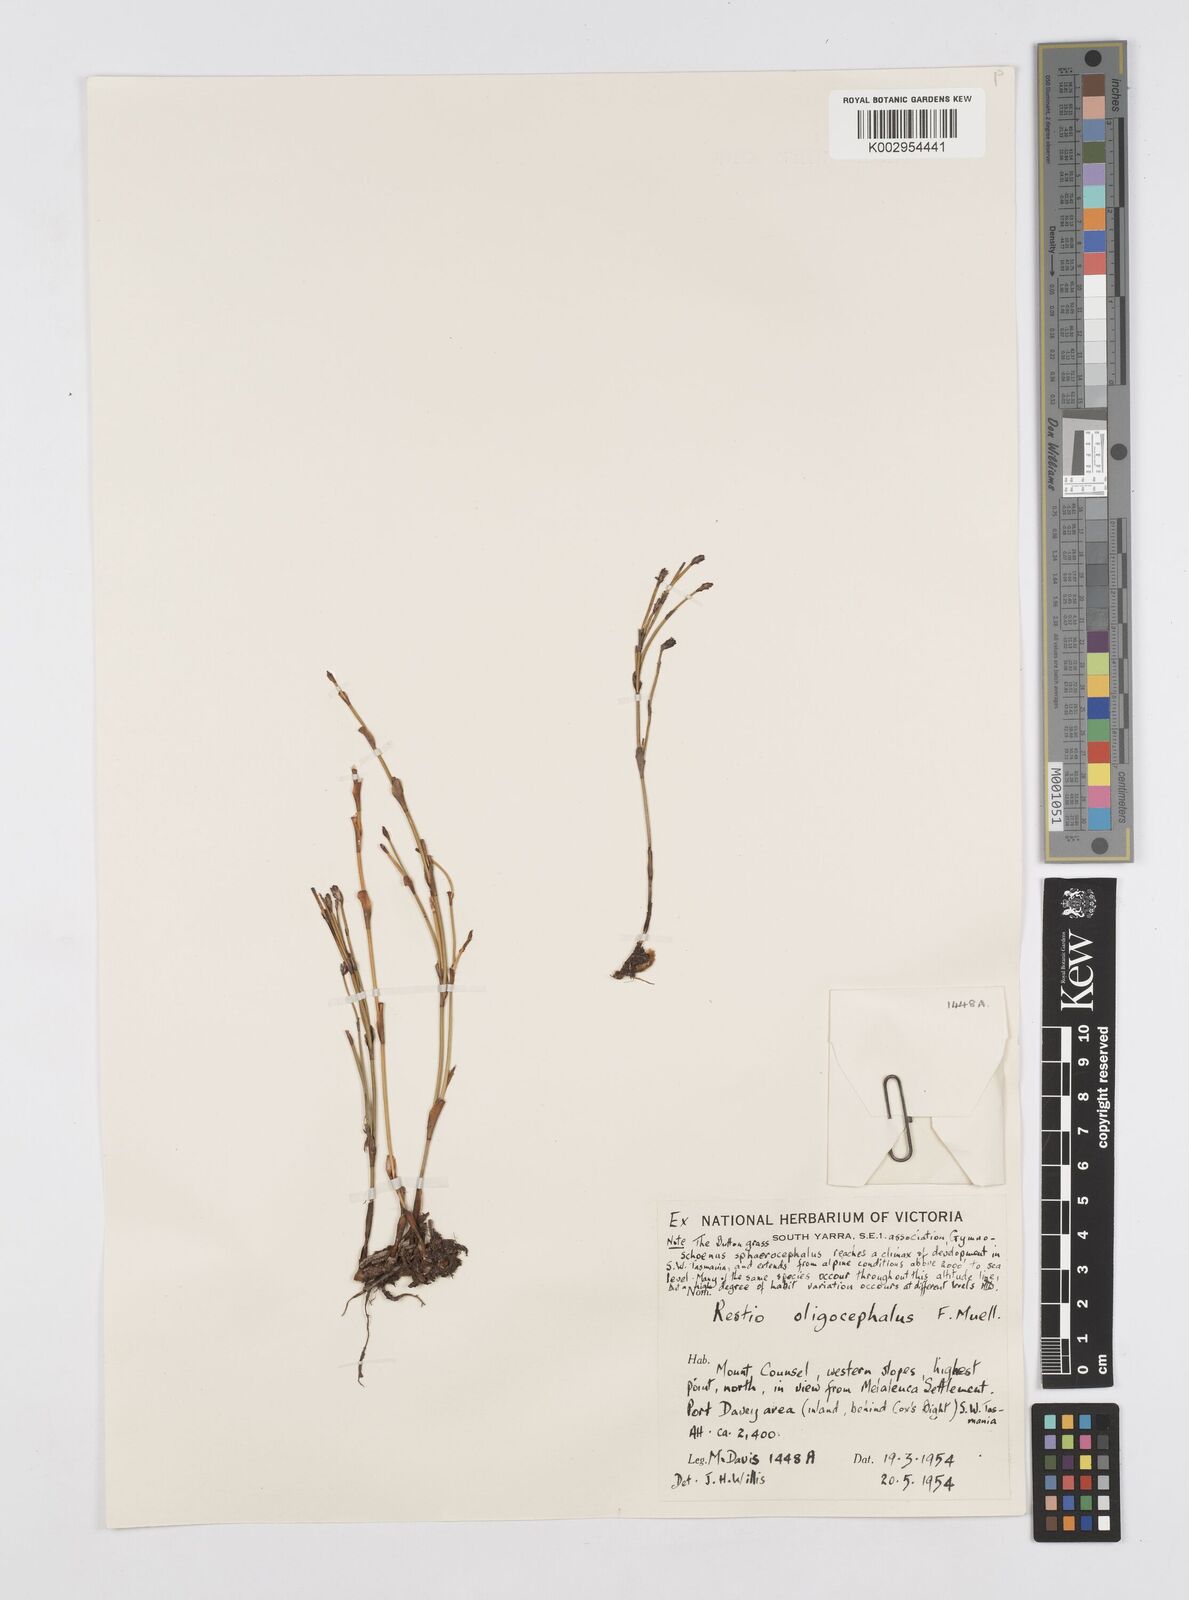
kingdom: Plantae
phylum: Tracheophyta
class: Liliopsida
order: Poales
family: Restionaceae
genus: Chordifex
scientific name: Chordifex hookeri
